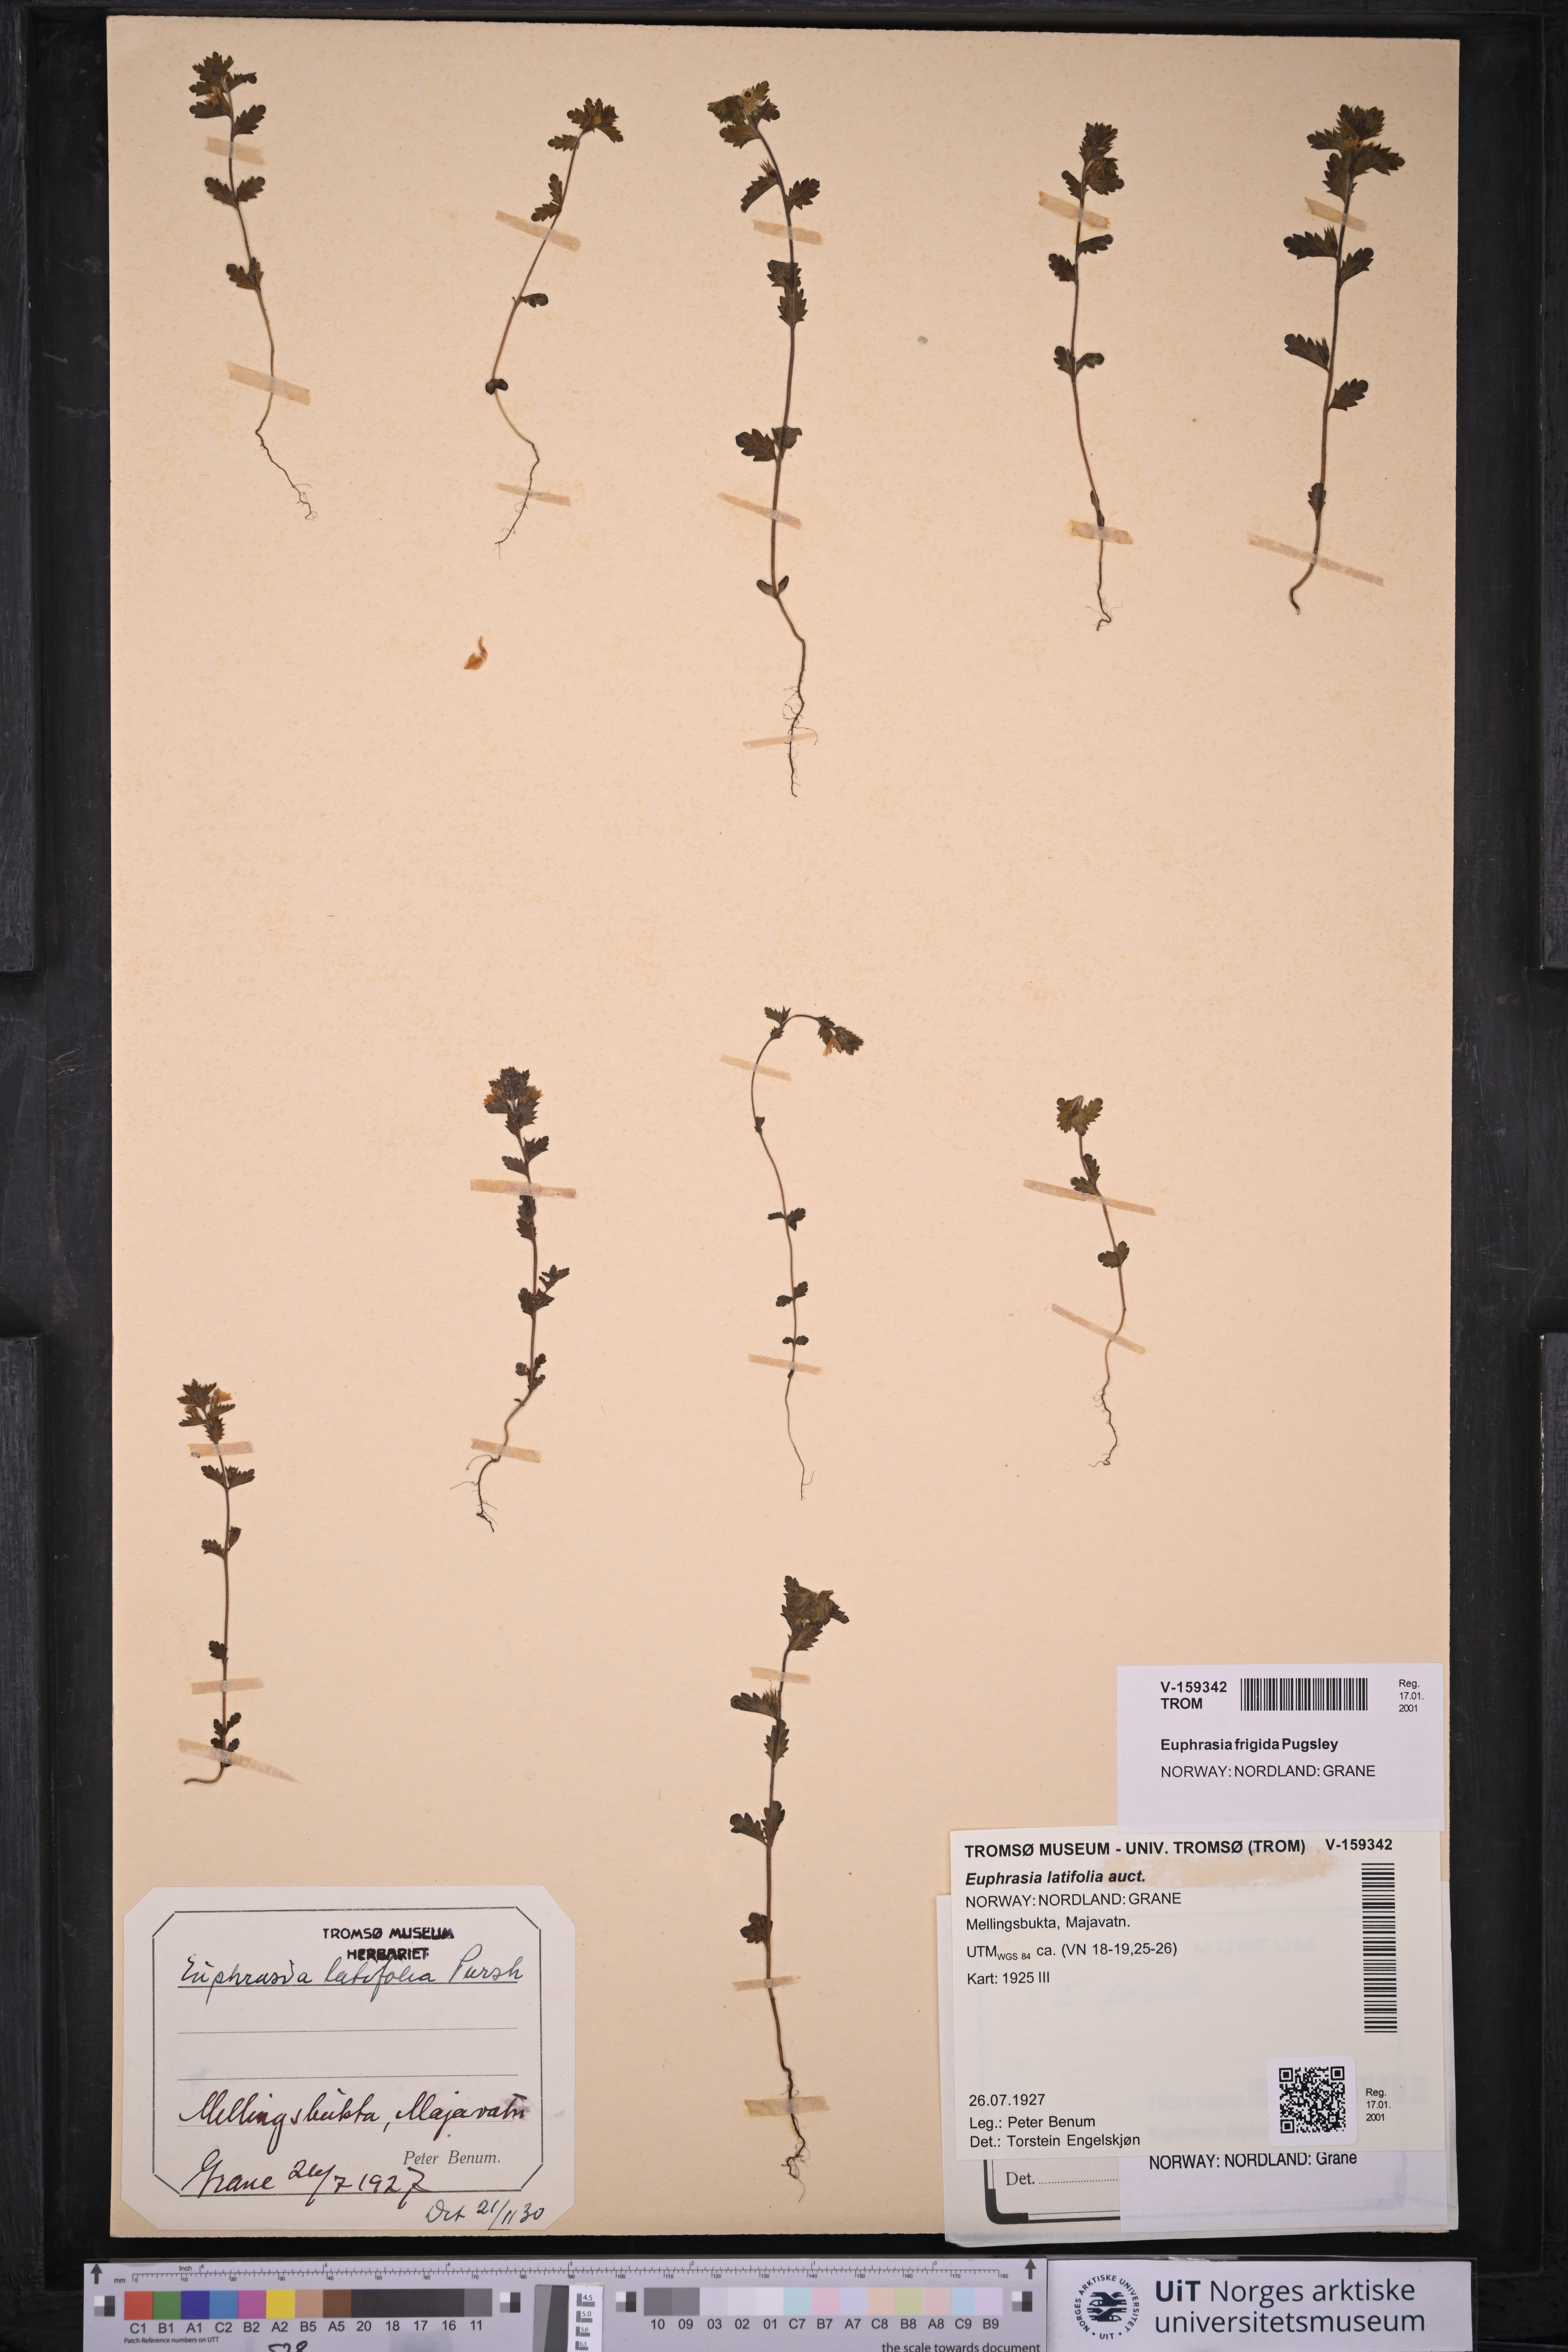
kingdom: Plantae
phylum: Tracheophyta
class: Magnoliopsida
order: Lamiales
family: Orobanchaceae
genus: Euphrasia
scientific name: Euphrasia wettsteinii
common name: Wettstein's eyebright
